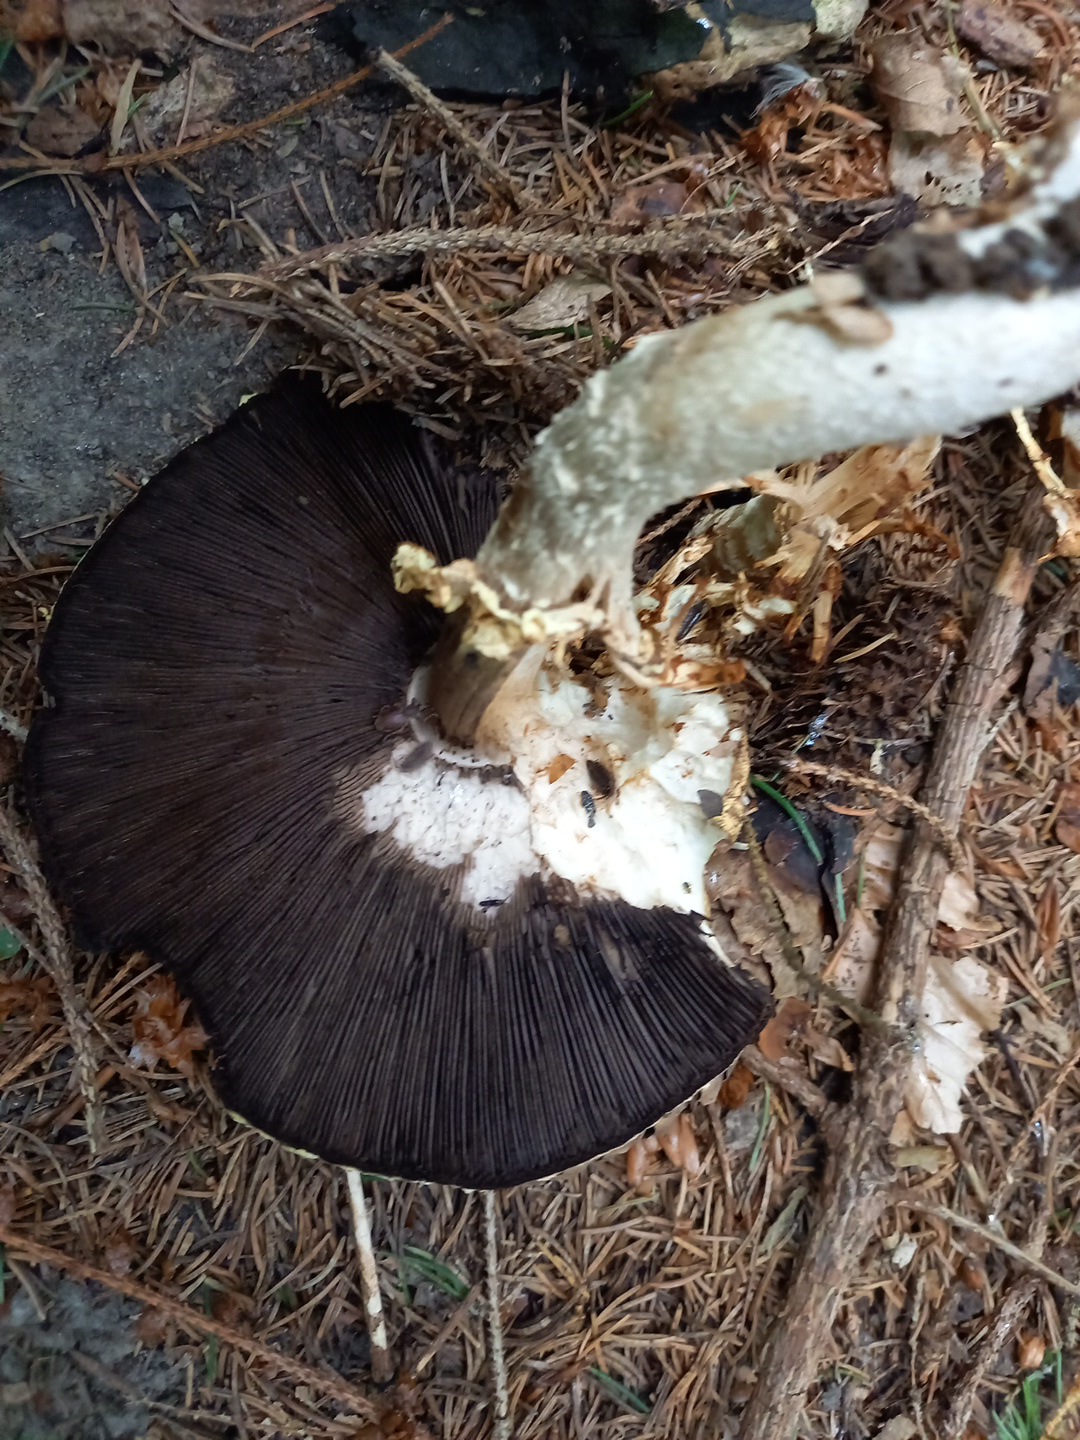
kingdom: Fungi
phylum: Basidiomycota
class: Agaricomycetes
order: Agaricales
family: Agaricaceae
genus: Agaricus
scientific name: Agaricus augustus
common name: prægtig champignon
